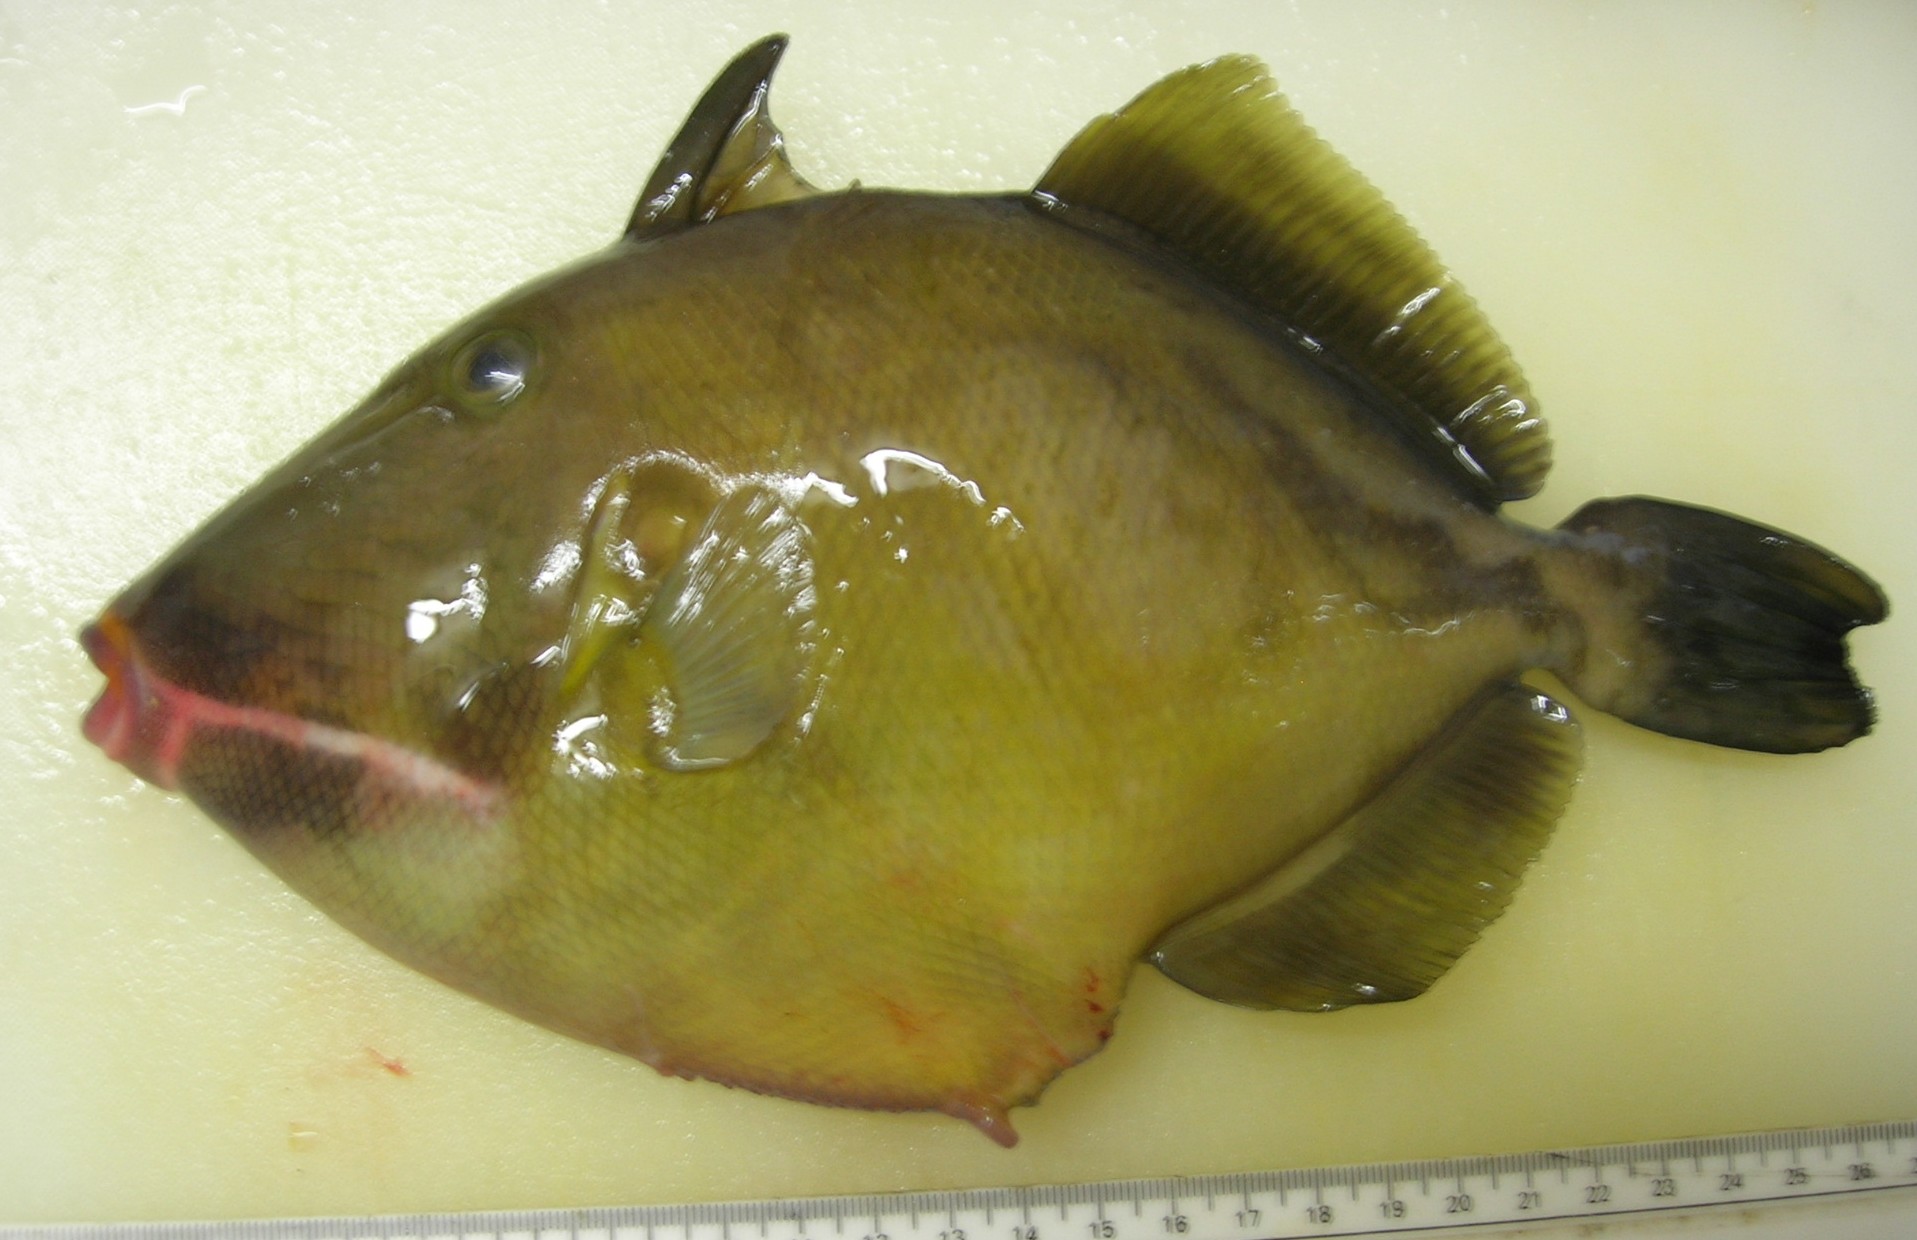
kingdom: Animalia
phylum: Chordata
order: Tetraodontiformes
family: Balistidae
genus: Sufflamen
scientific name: Sufflamen fraenatum
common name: Bridle triggerfish
